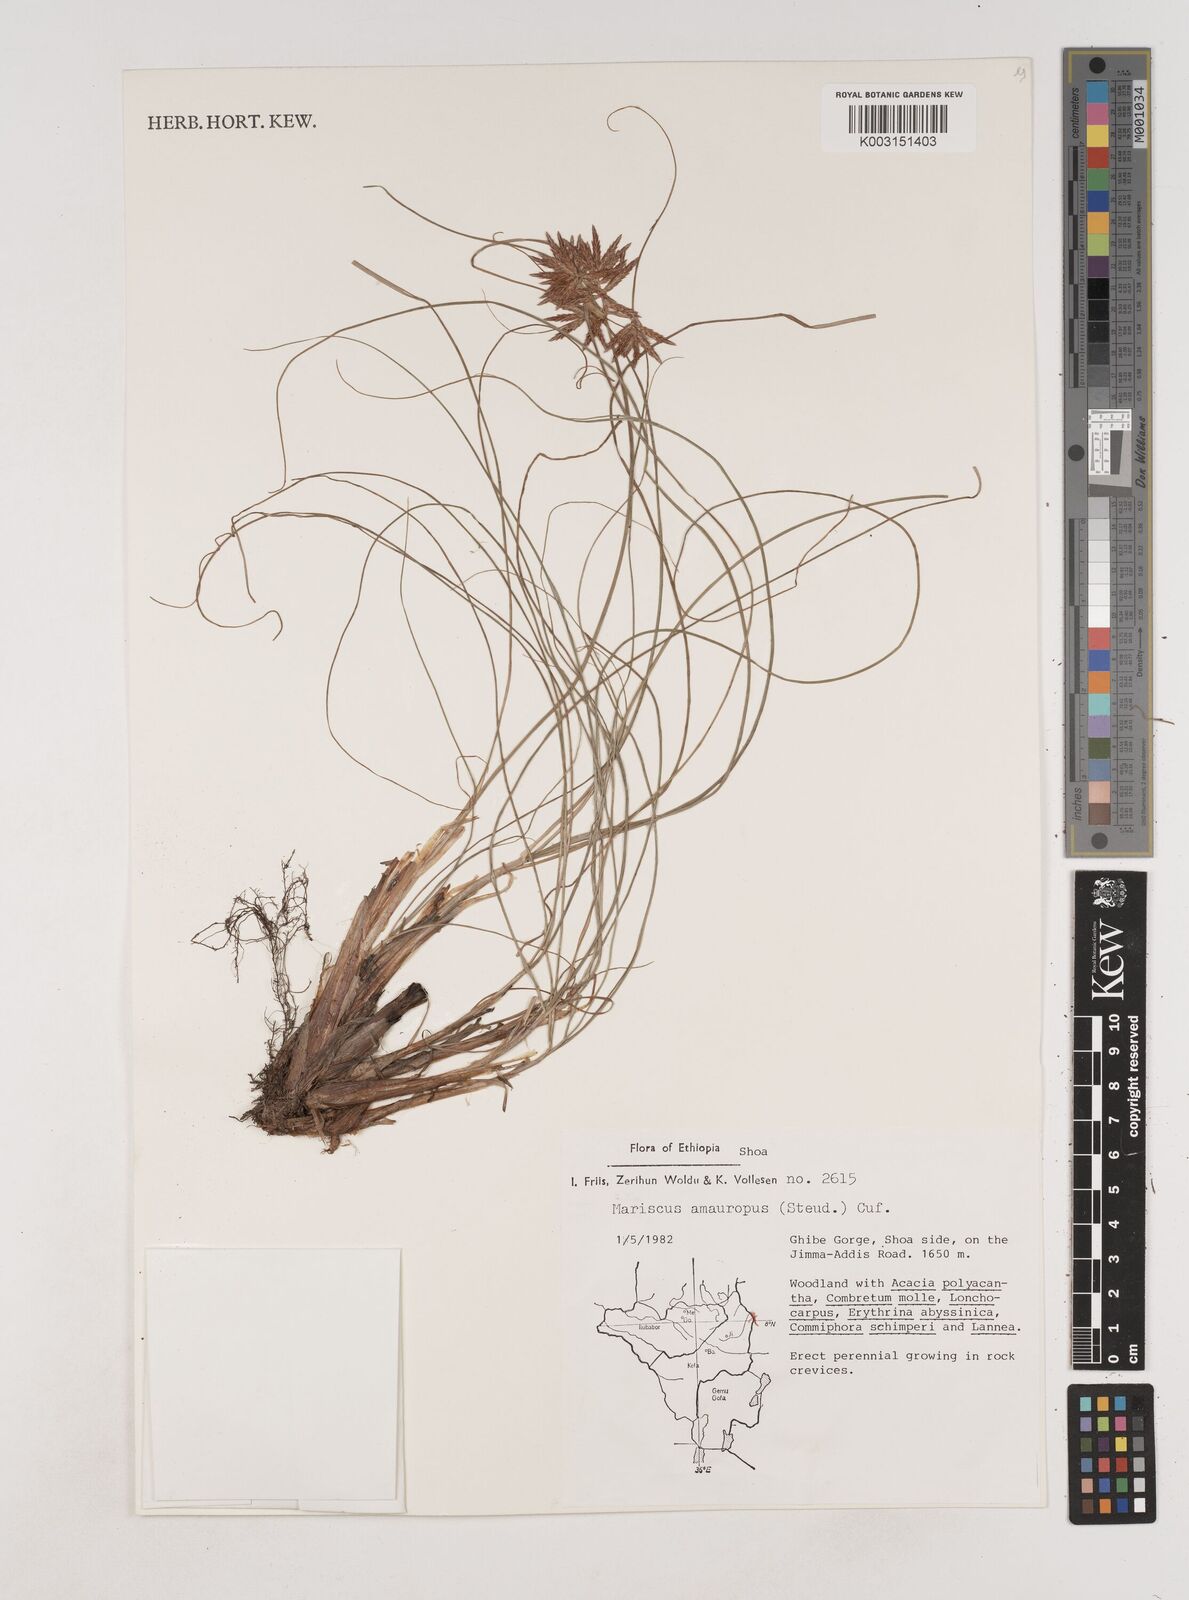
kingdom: Plantae
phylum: Tracheophyta
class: Liliopsida
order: Poales
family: Cyperaceae
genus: Cyperus
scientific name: Cyperus amauropus
